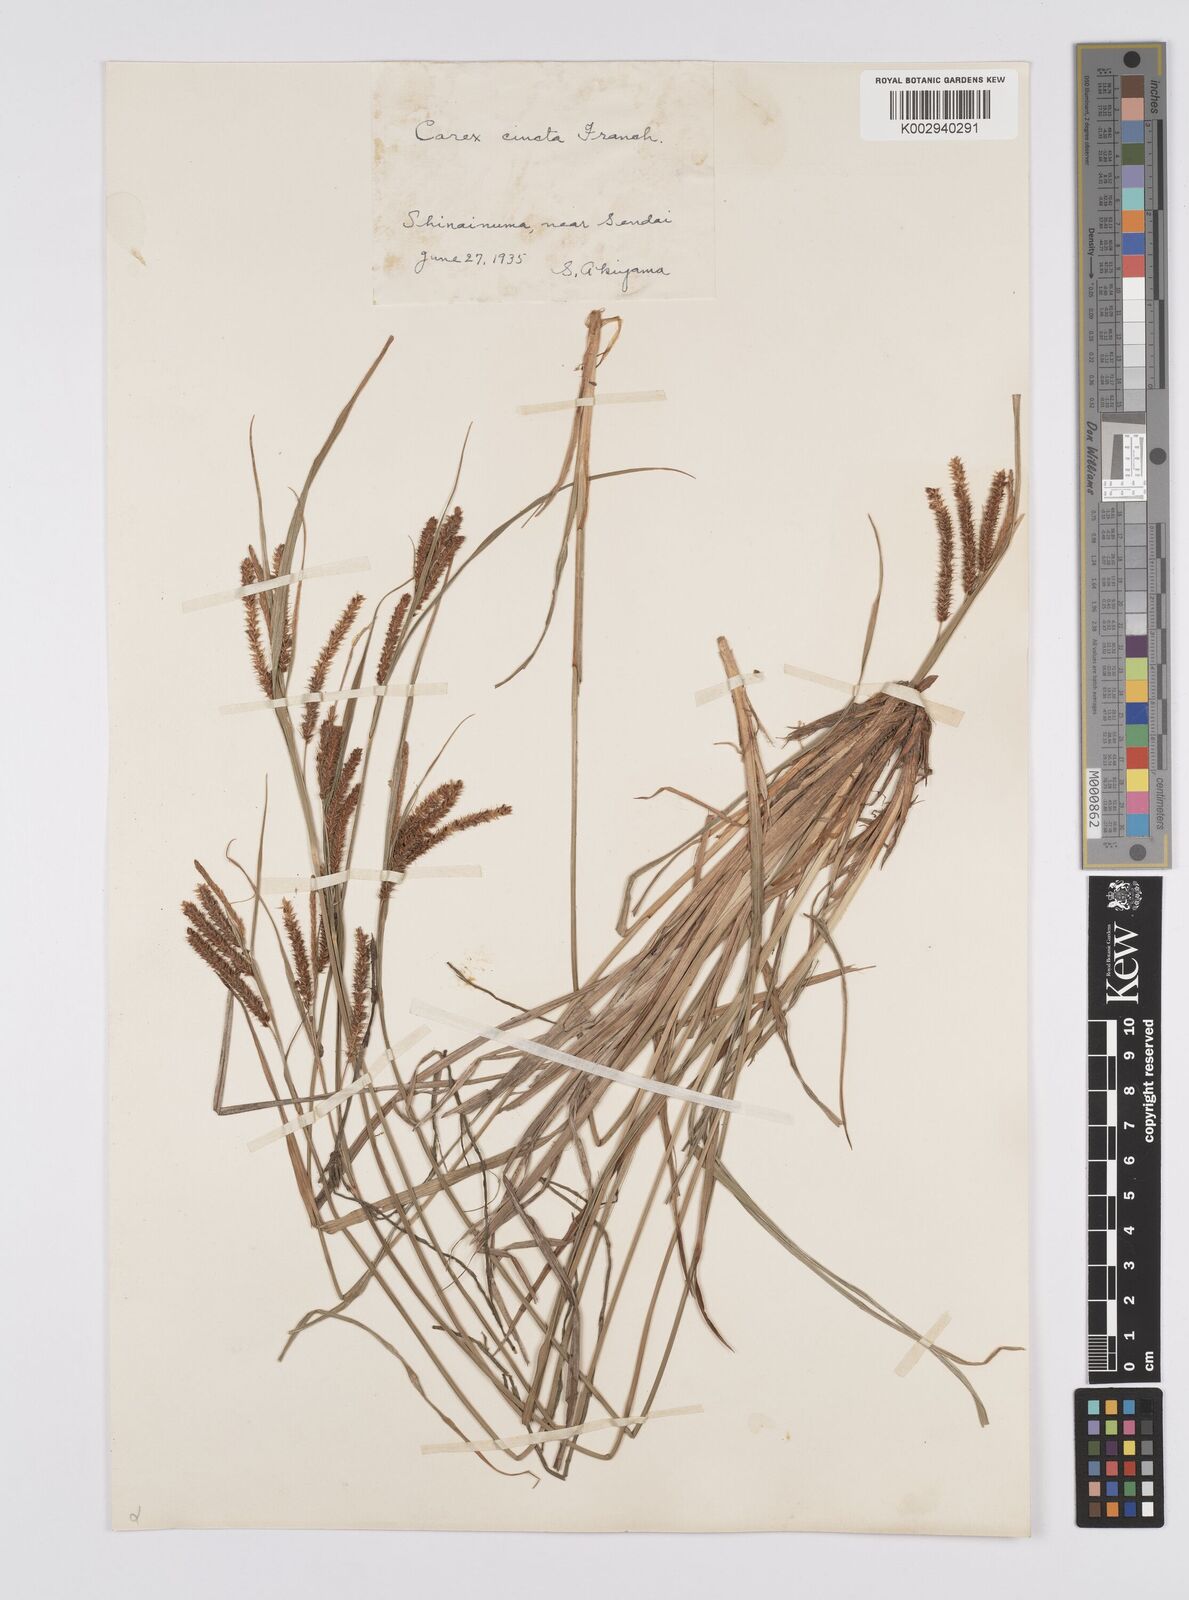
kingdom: Plantae
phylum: Tracheophyta
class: Liliopsida
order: Poales
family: Cyperaceae
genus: Carex
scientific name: Carex phacota
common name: Lakeshore sedge
